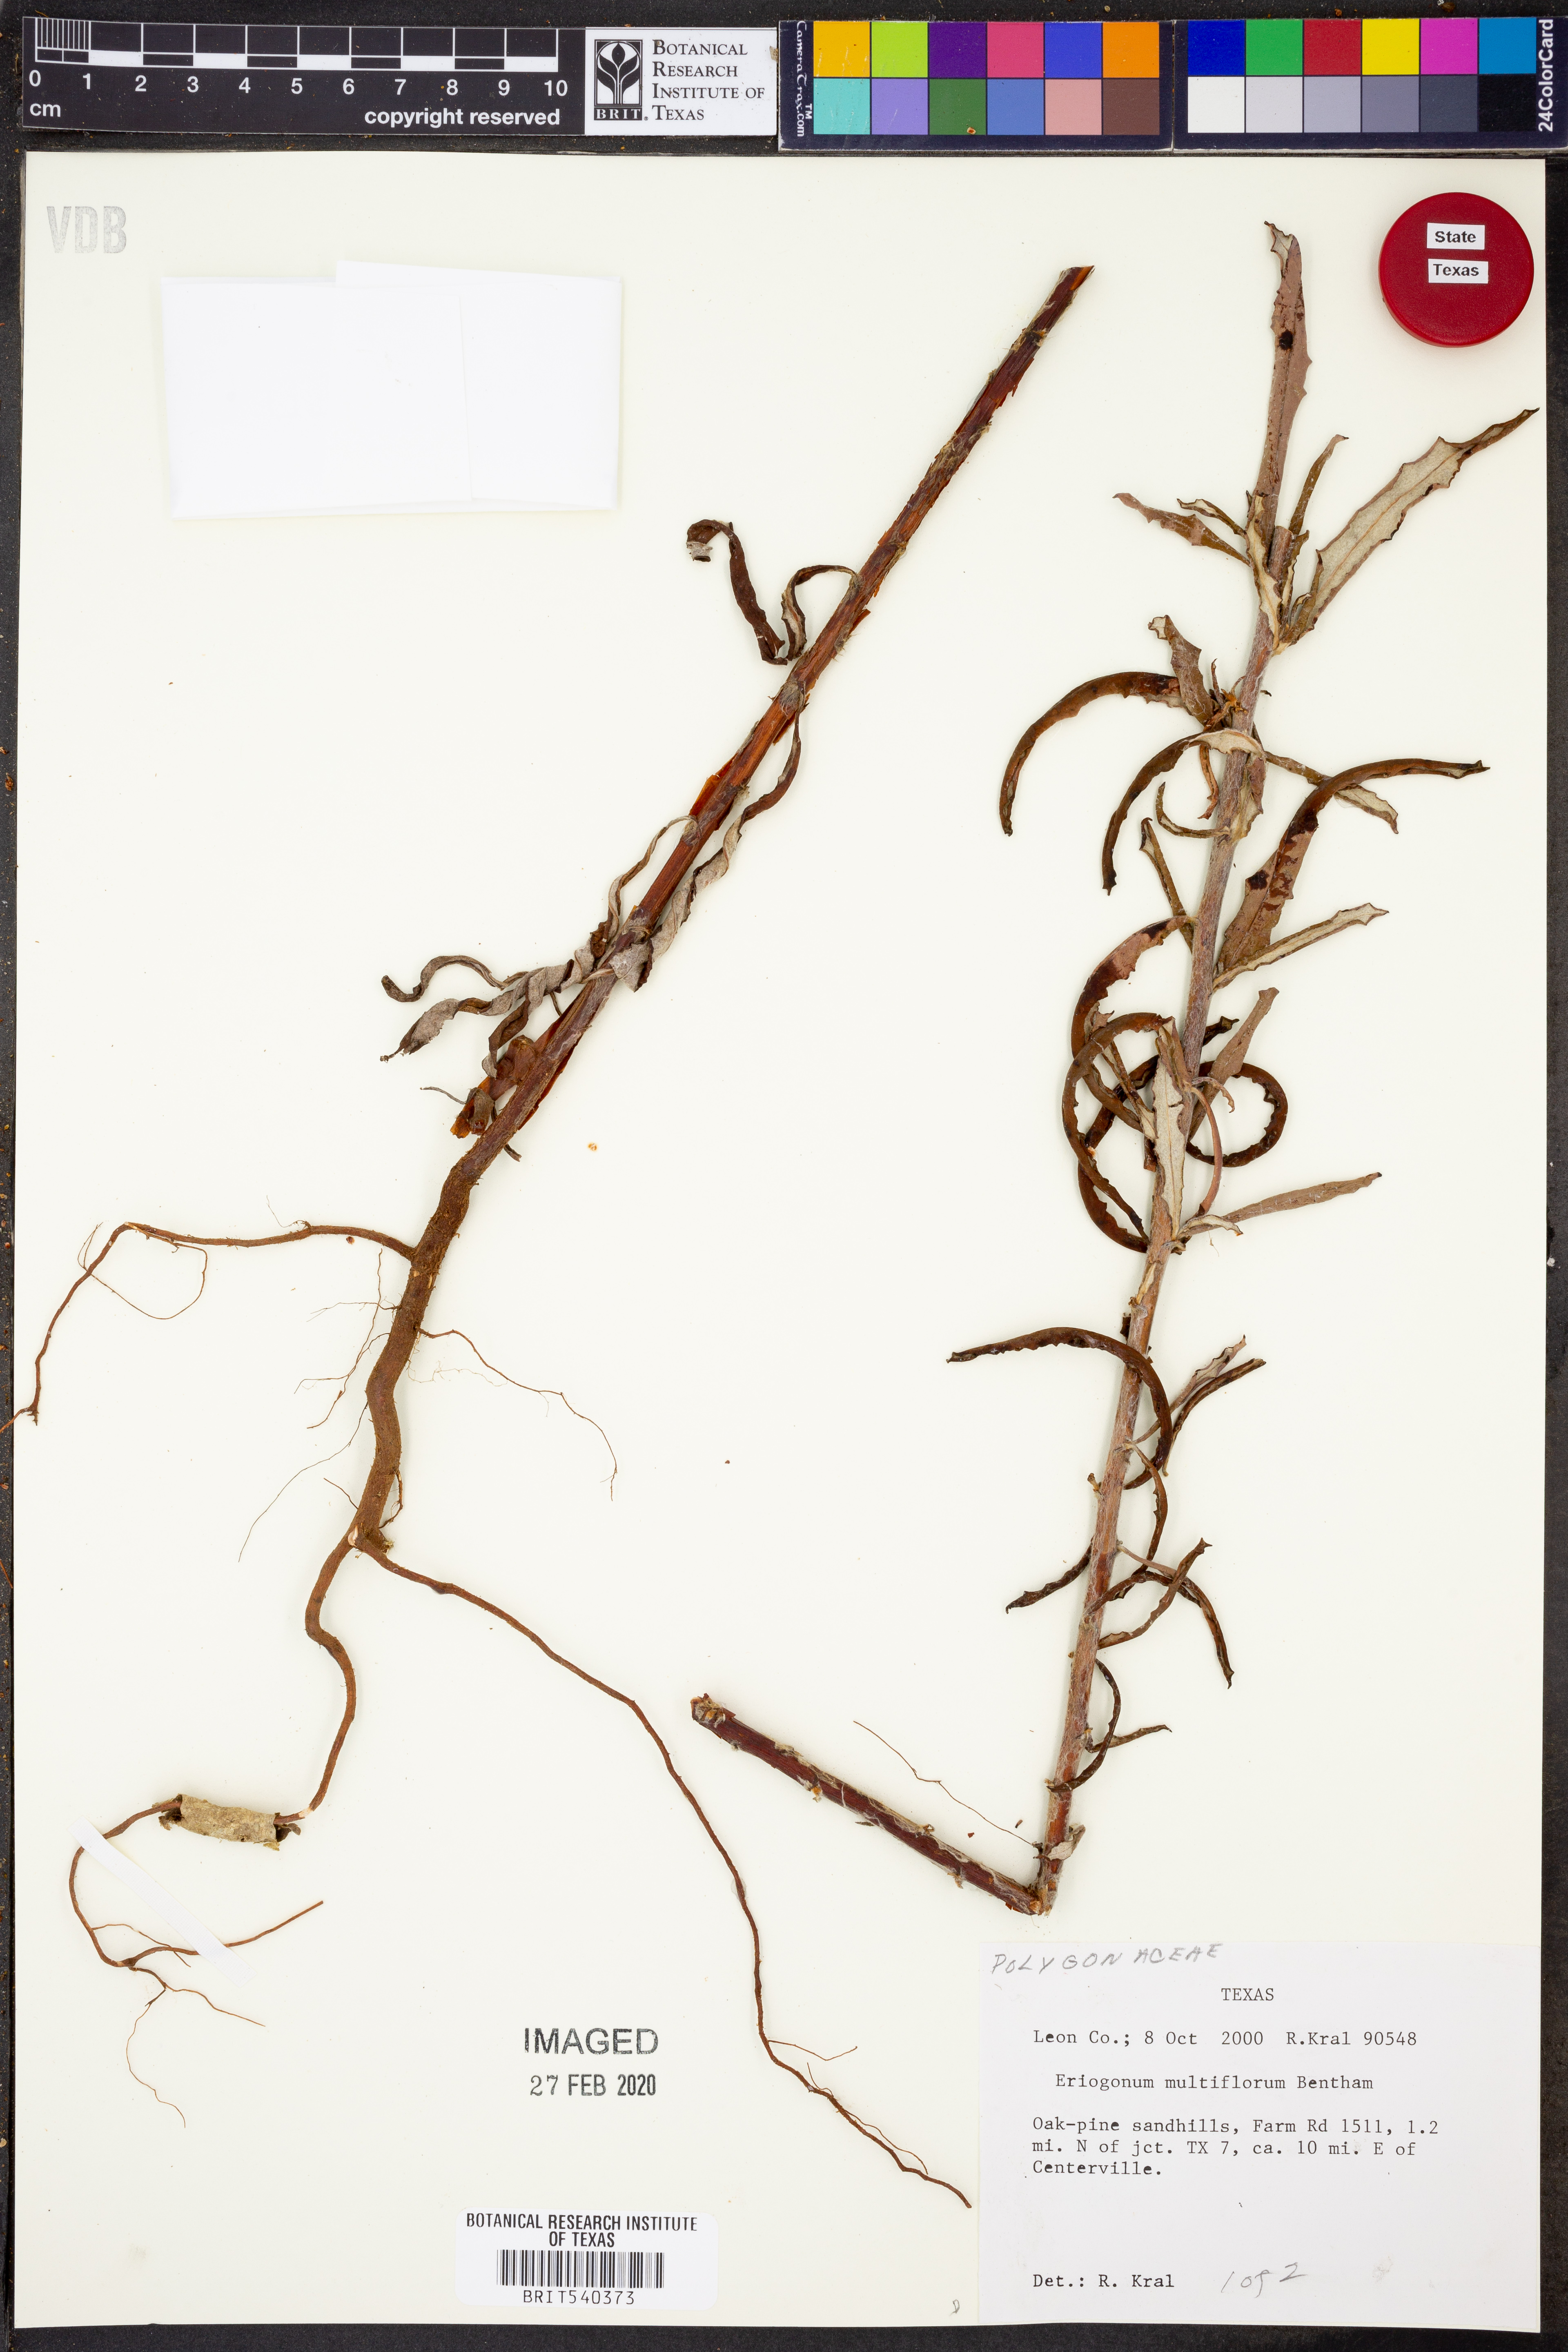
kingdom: Plantae
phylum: Tracheophyta
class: Magnoliopsida
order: Caryophyllales
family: Polygonaceae
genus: Eriogonum
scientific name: Eriogonum multiflorum
